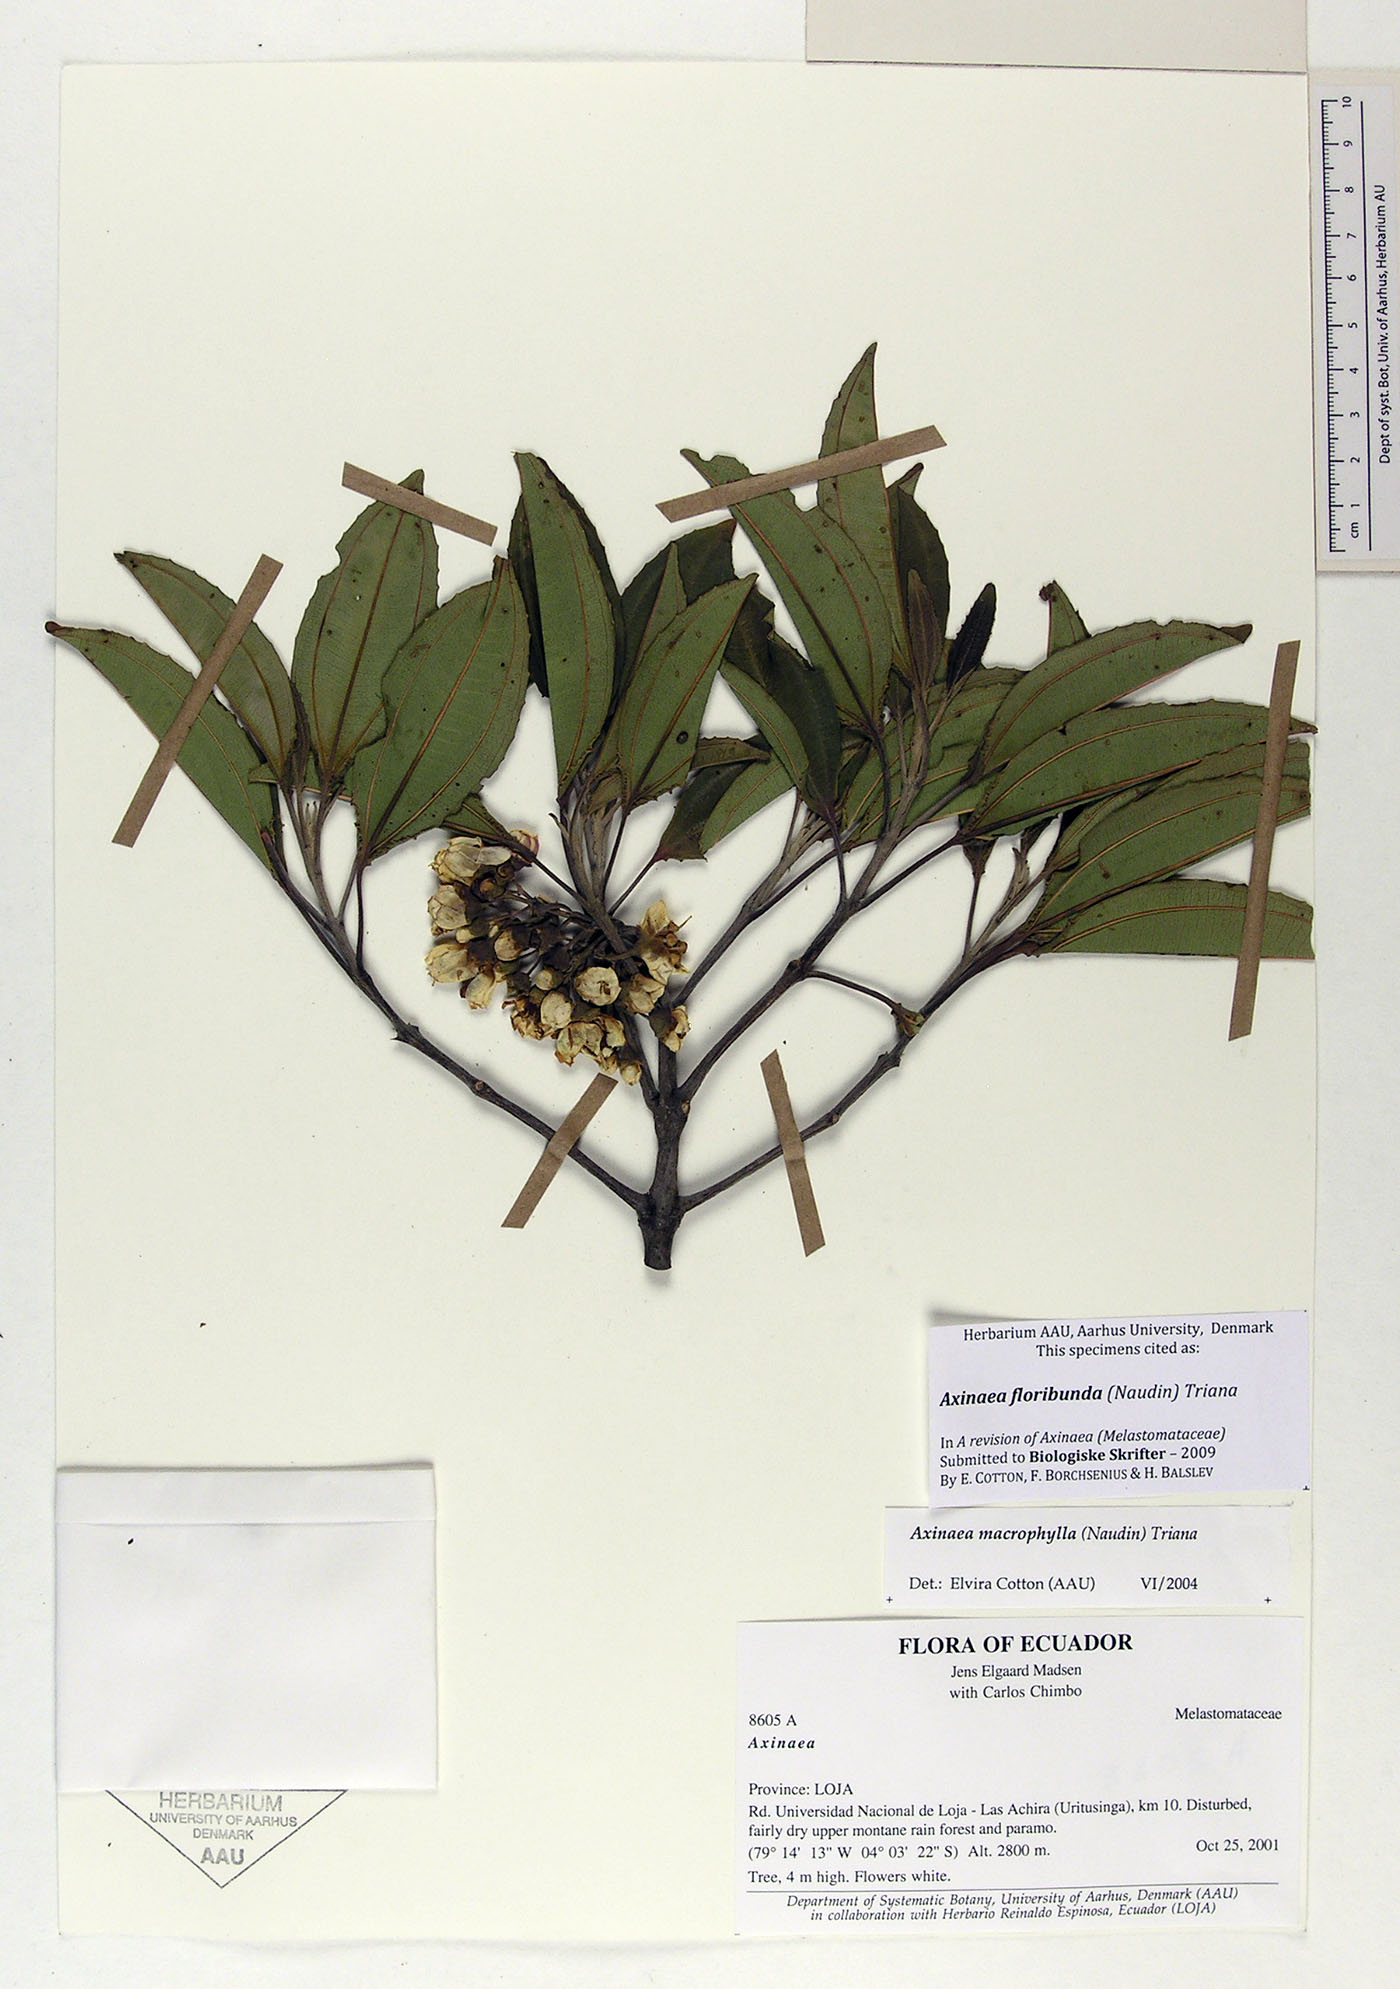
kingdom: Plantae
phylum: Tracheophyta
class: Magnoliopsida
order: Myrtales
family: Melastomataceae
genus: Axinaea
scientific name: Axinaea floribunda
